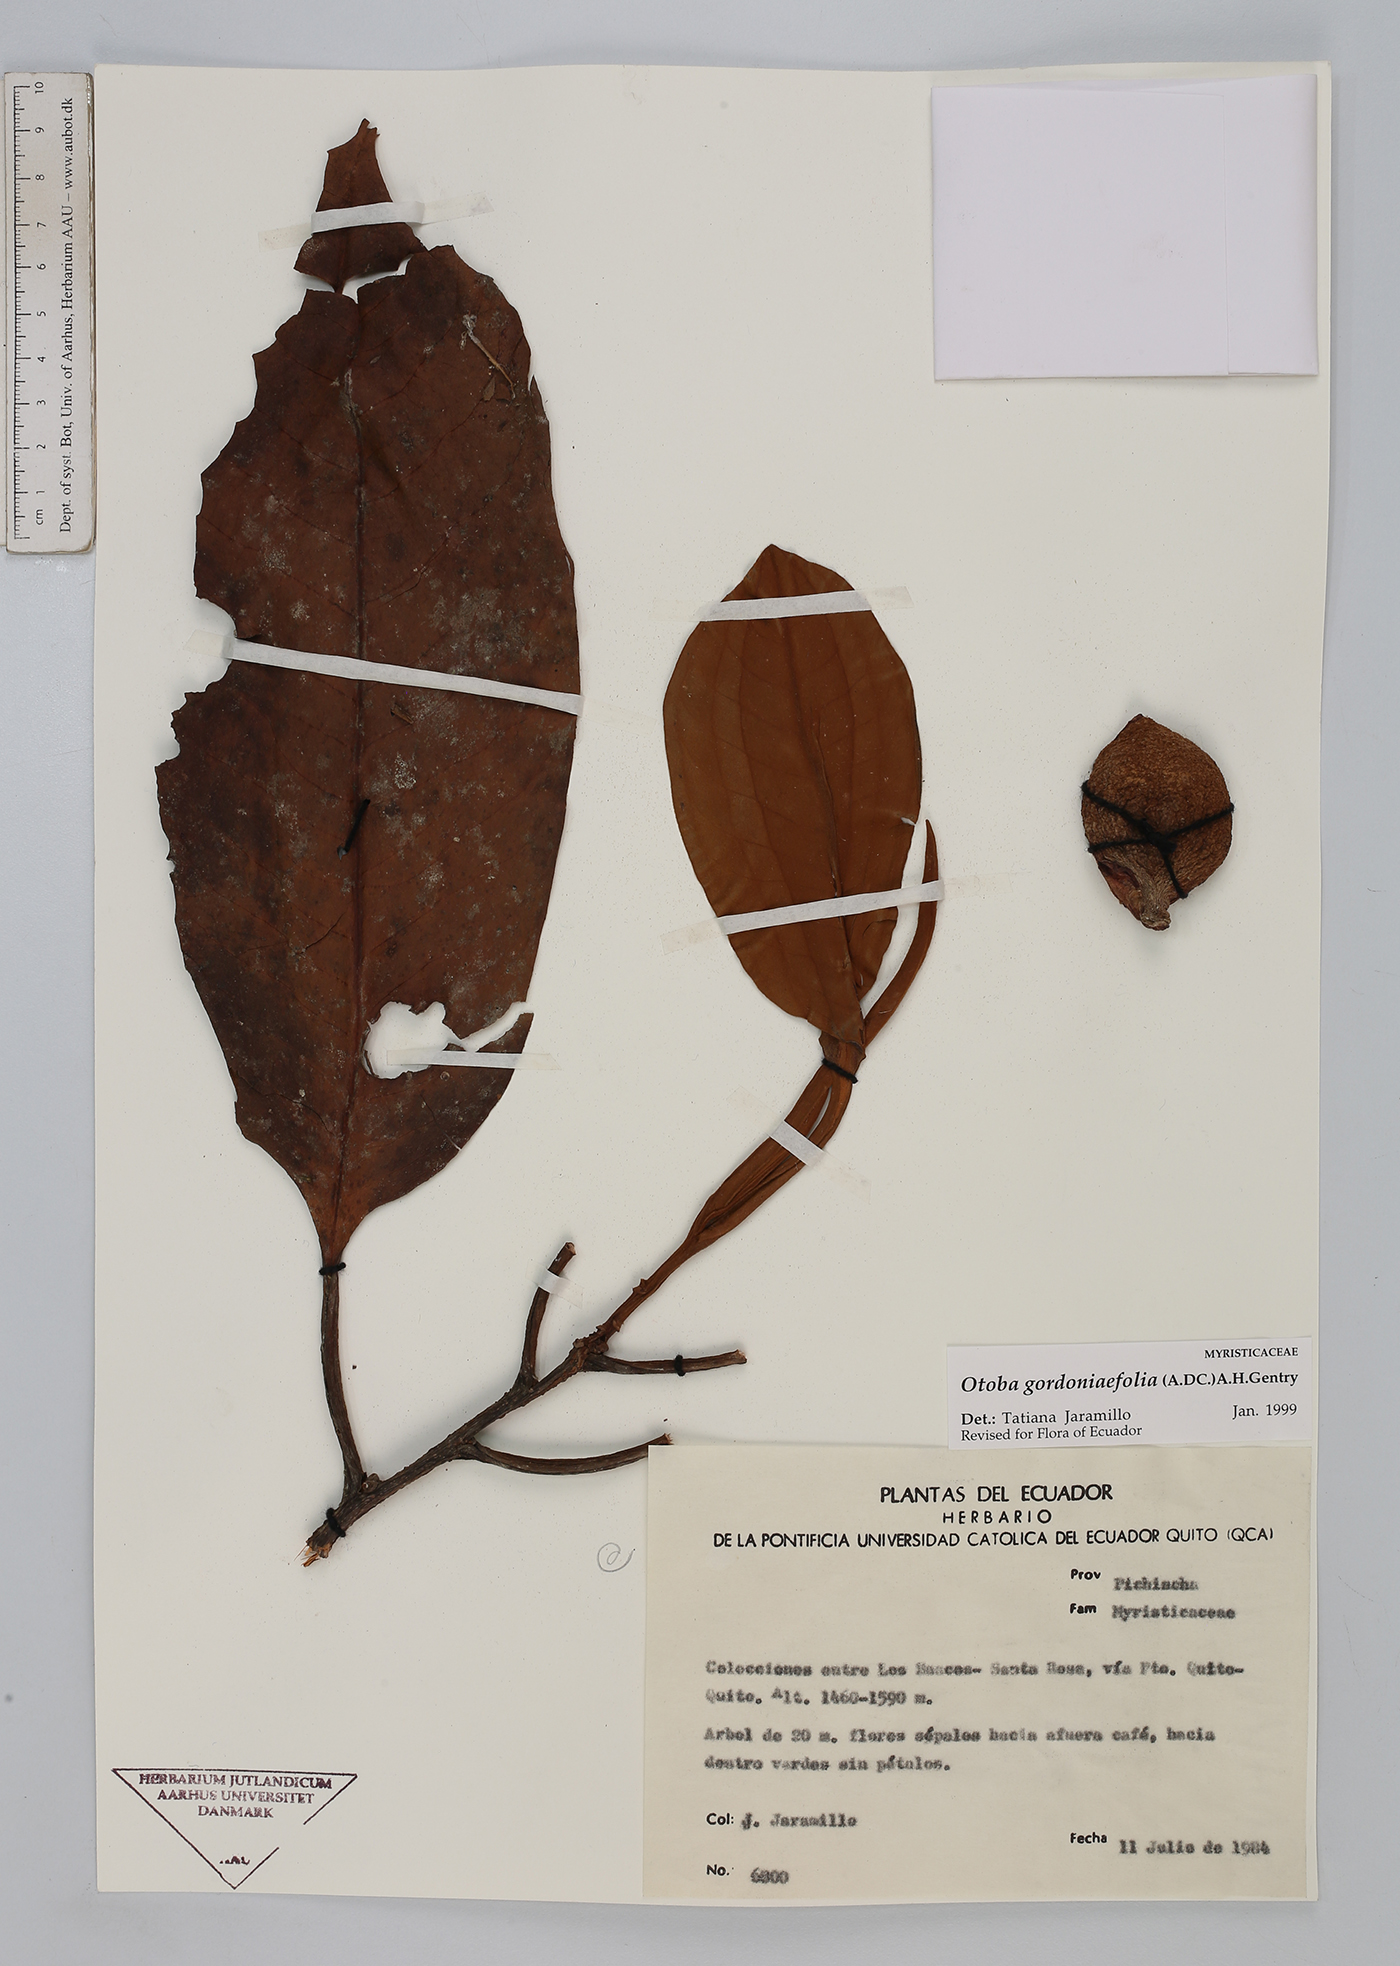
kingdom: Plantae
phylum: Tracheophyta
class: Magnoliopsida
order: Magnoliales
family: Myristicaceae
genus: Otoba
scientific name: Otoba gordoniifolia
